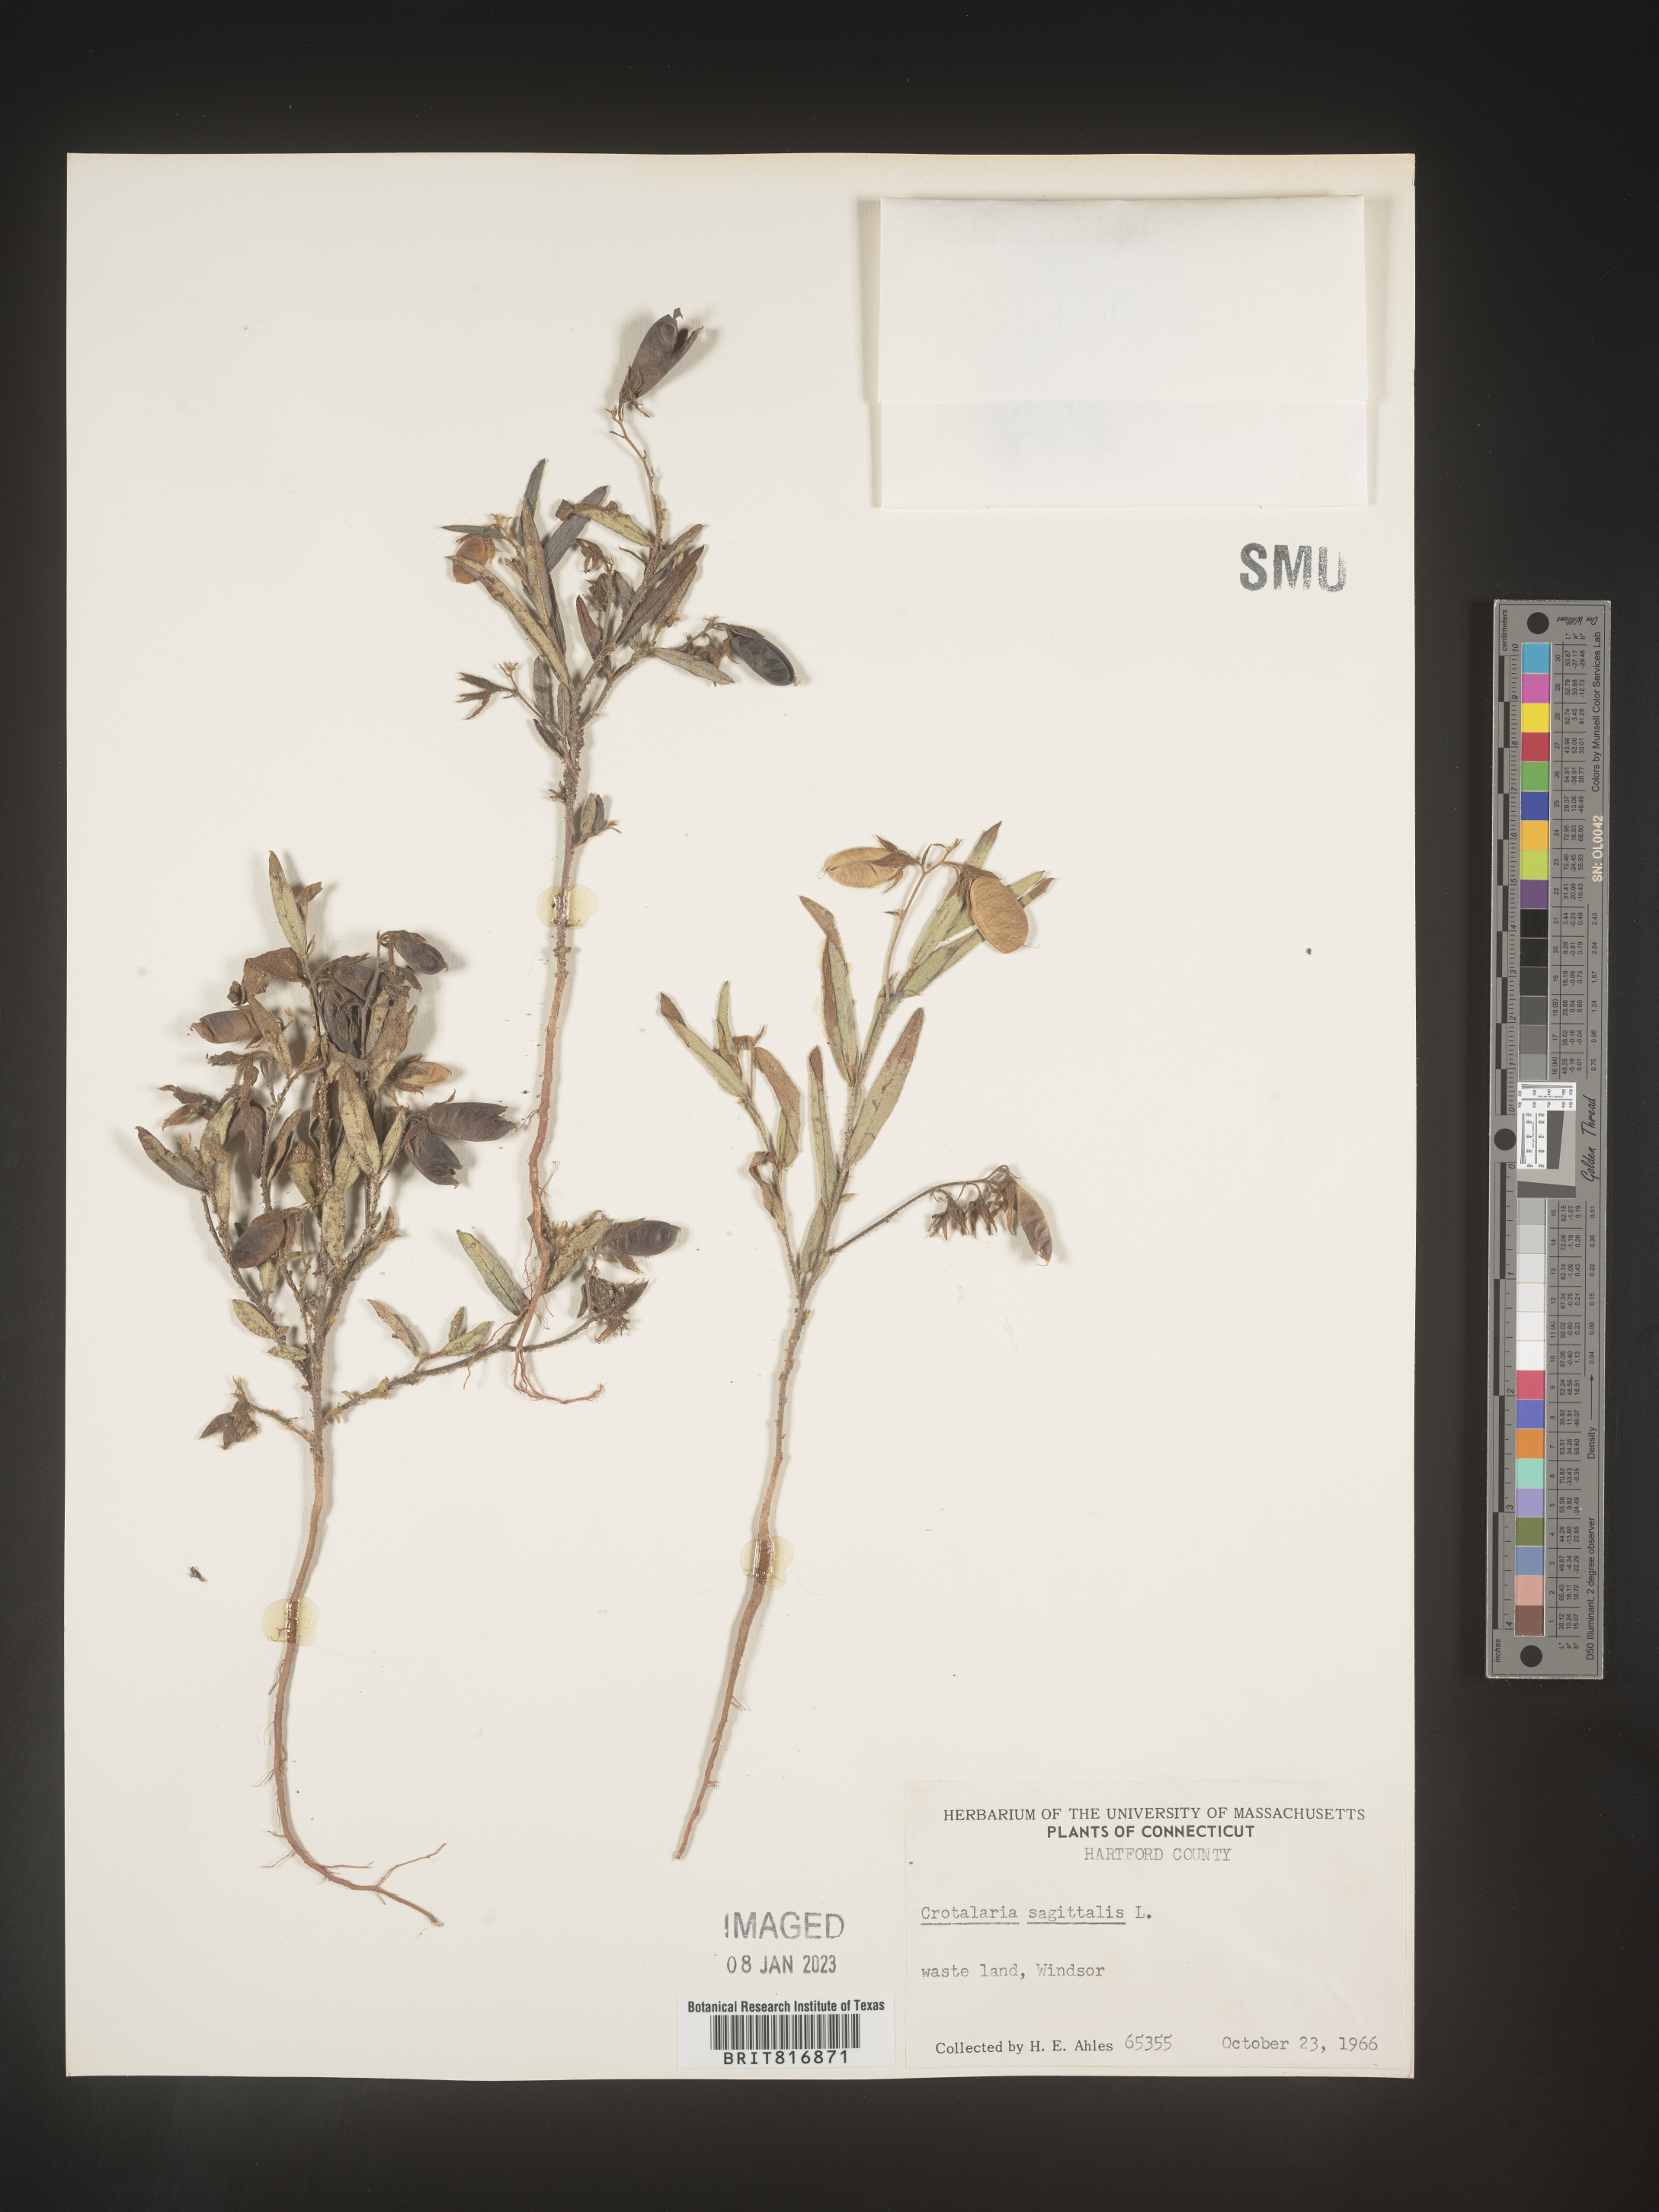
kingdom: Plantae
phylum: Tracheophyta
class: Magnoliopsida
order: Fabales
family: Fabaceae
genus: Crotalaria
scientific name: Crotalaria sagittalis
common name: Arrowhead rattlebox
